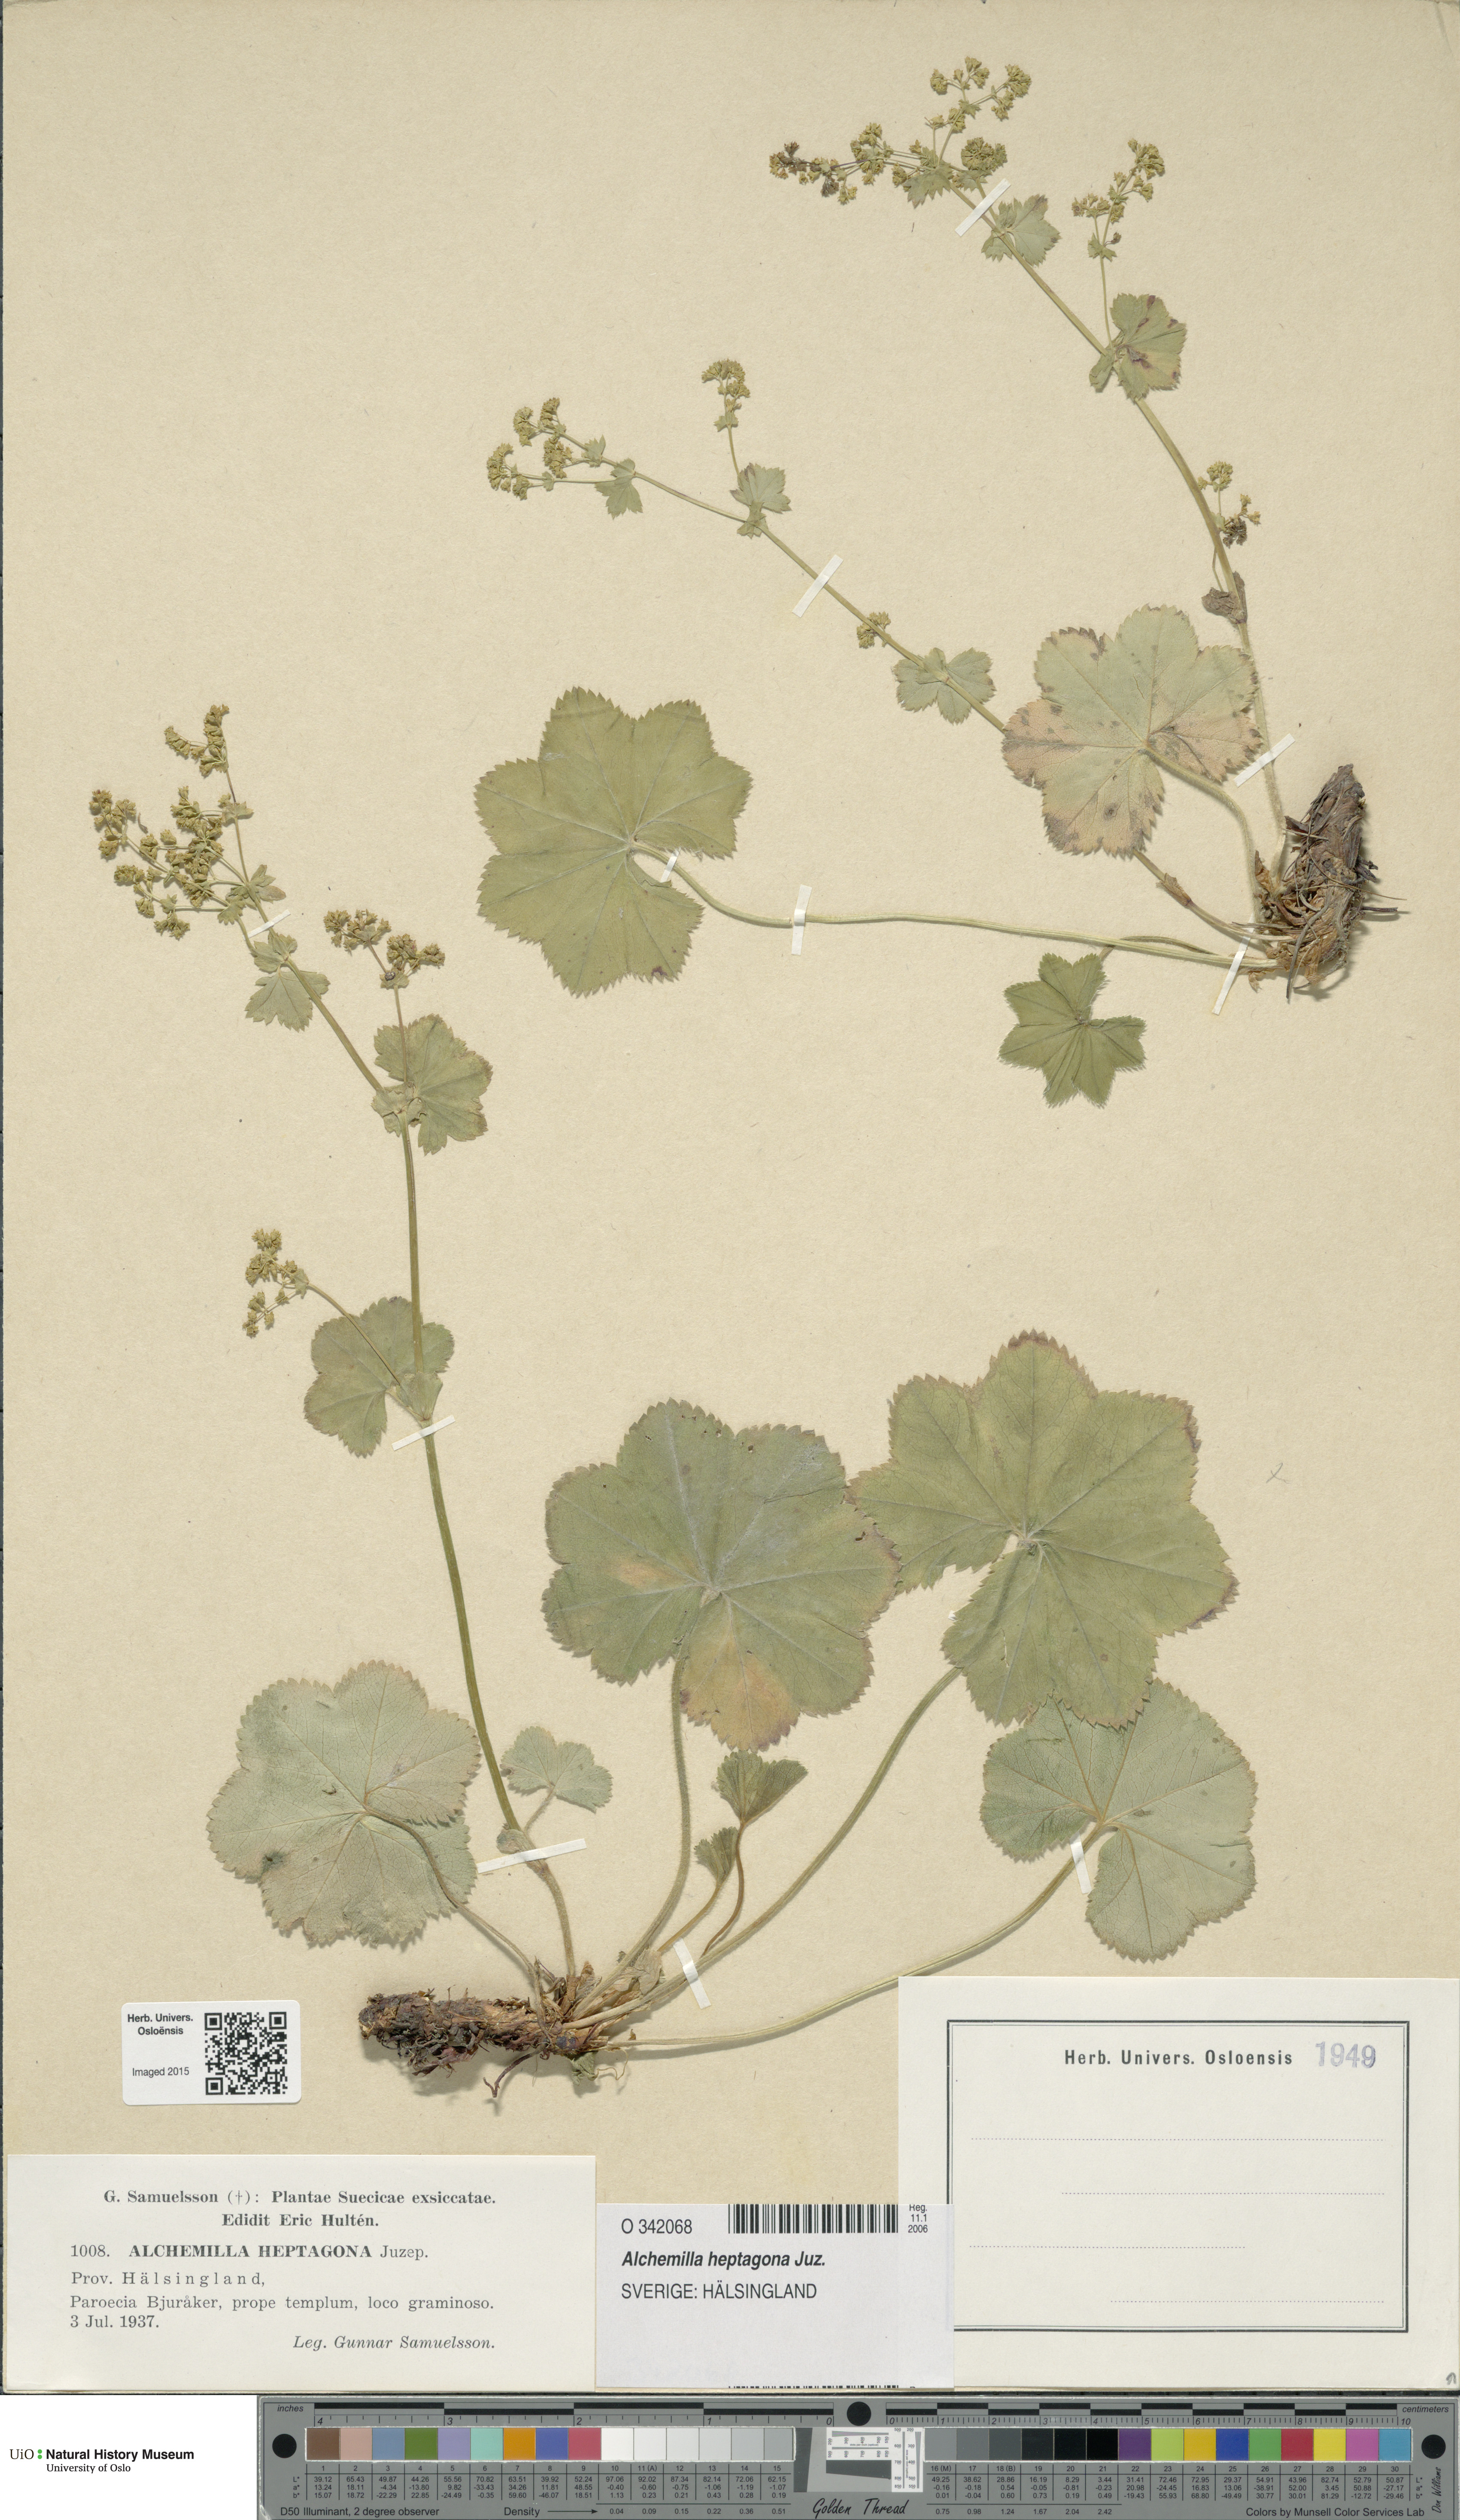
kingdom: Plantae
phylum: Tracheophyta
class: Magnoliopsida
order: Rosales
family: Rosaceae
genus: Alchemilla
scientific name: Alchemilla heptagona
